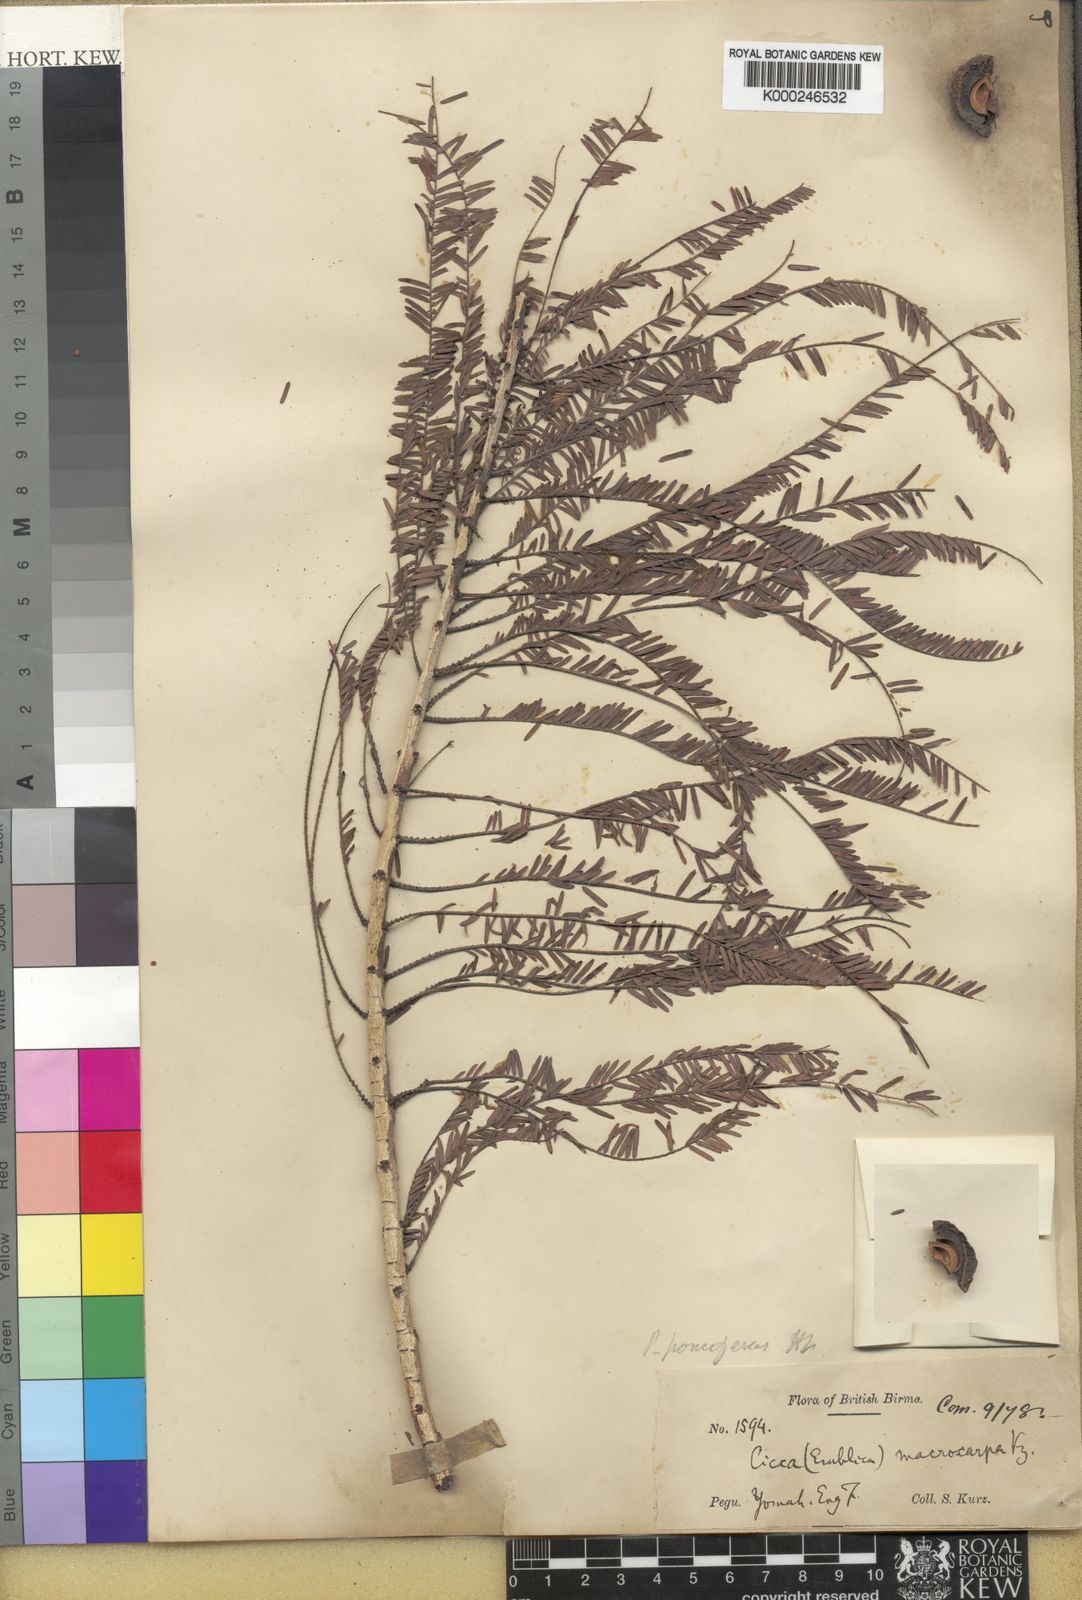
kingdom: Plantae
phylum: Tracheophyta
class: Magnoliopsida
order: Malpighiales
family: Phyllanthaceae
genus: Phyllanthus
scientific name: Phyllanthus
